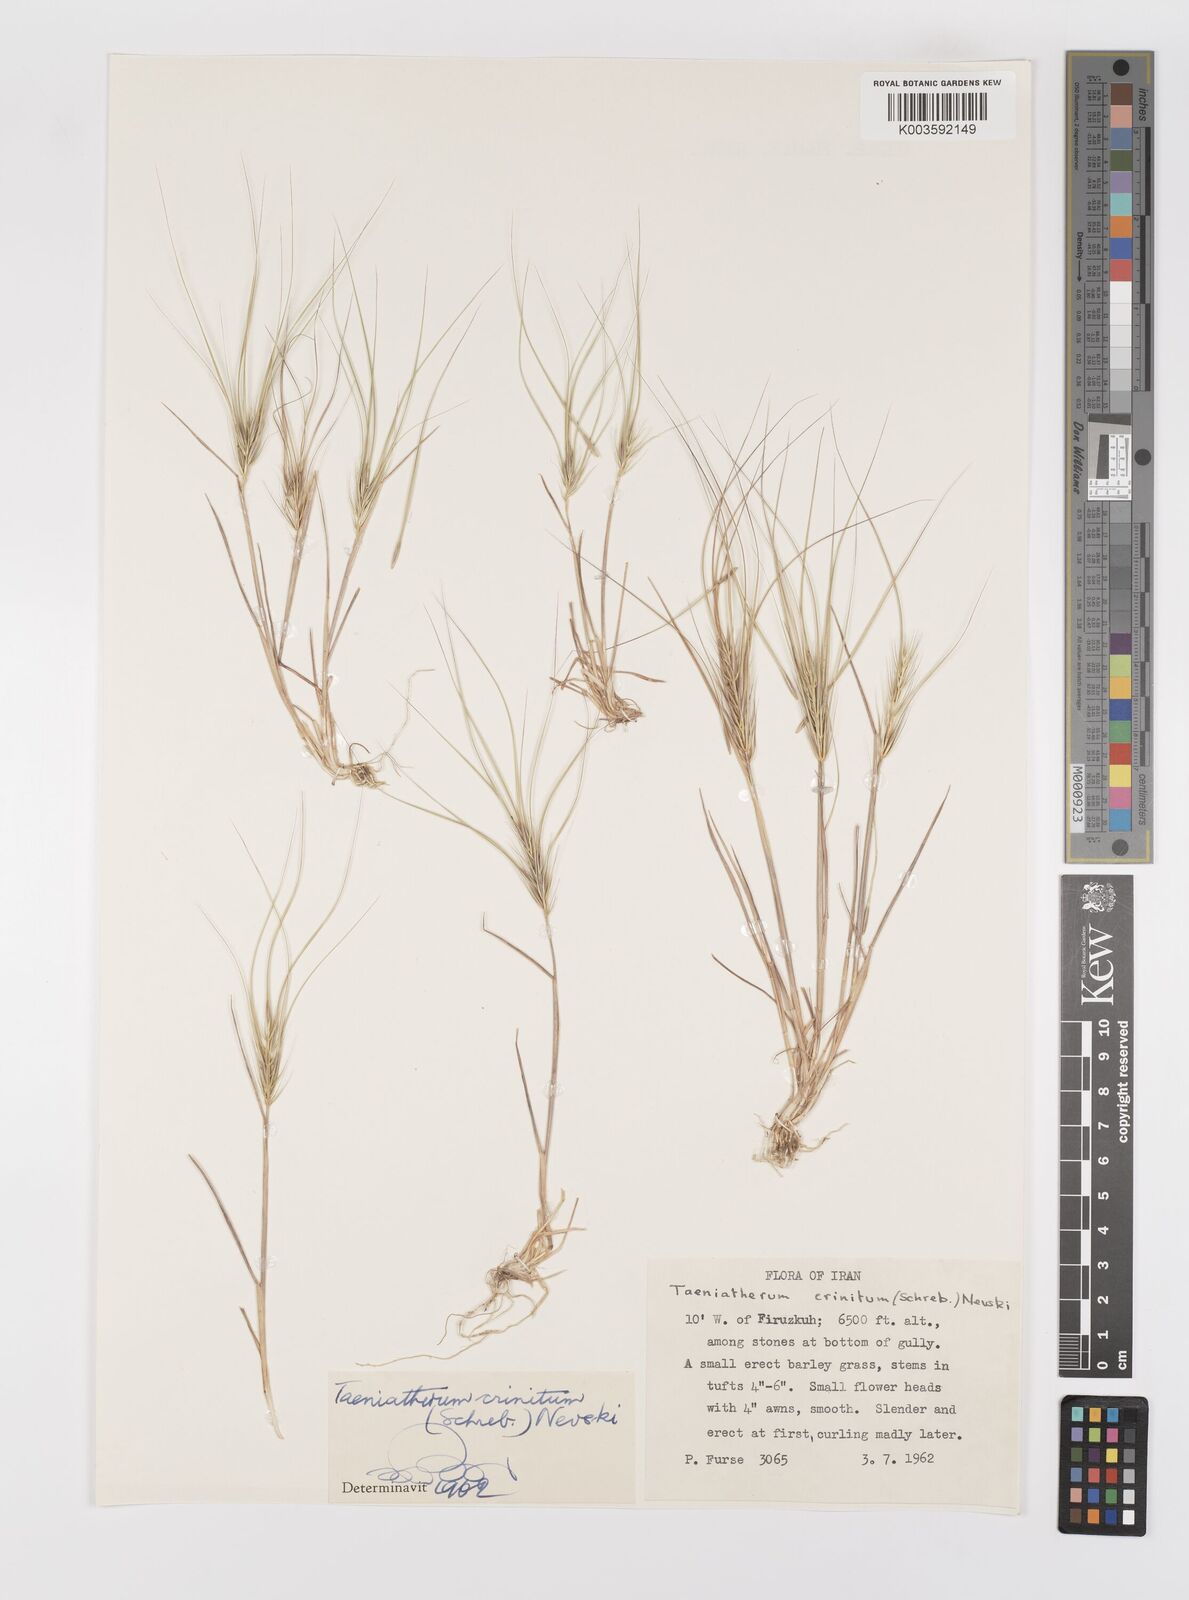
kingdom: Plantae
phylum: Tracheophyta
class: Liliopsida
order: Poales
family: Poaceae
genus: Taeniatherum
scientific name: Taeniatherum caput-medusae
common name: Medusahead
